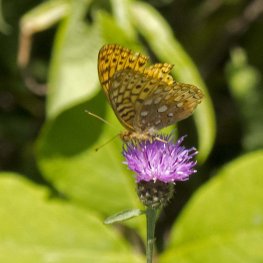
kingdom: Animalia
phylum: Arthropoda
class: Insecta
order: Lepidoptera
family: Nymphalidae
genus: Speyeria
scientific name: Speyeria cybele
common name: Great Spangled Fritillary
